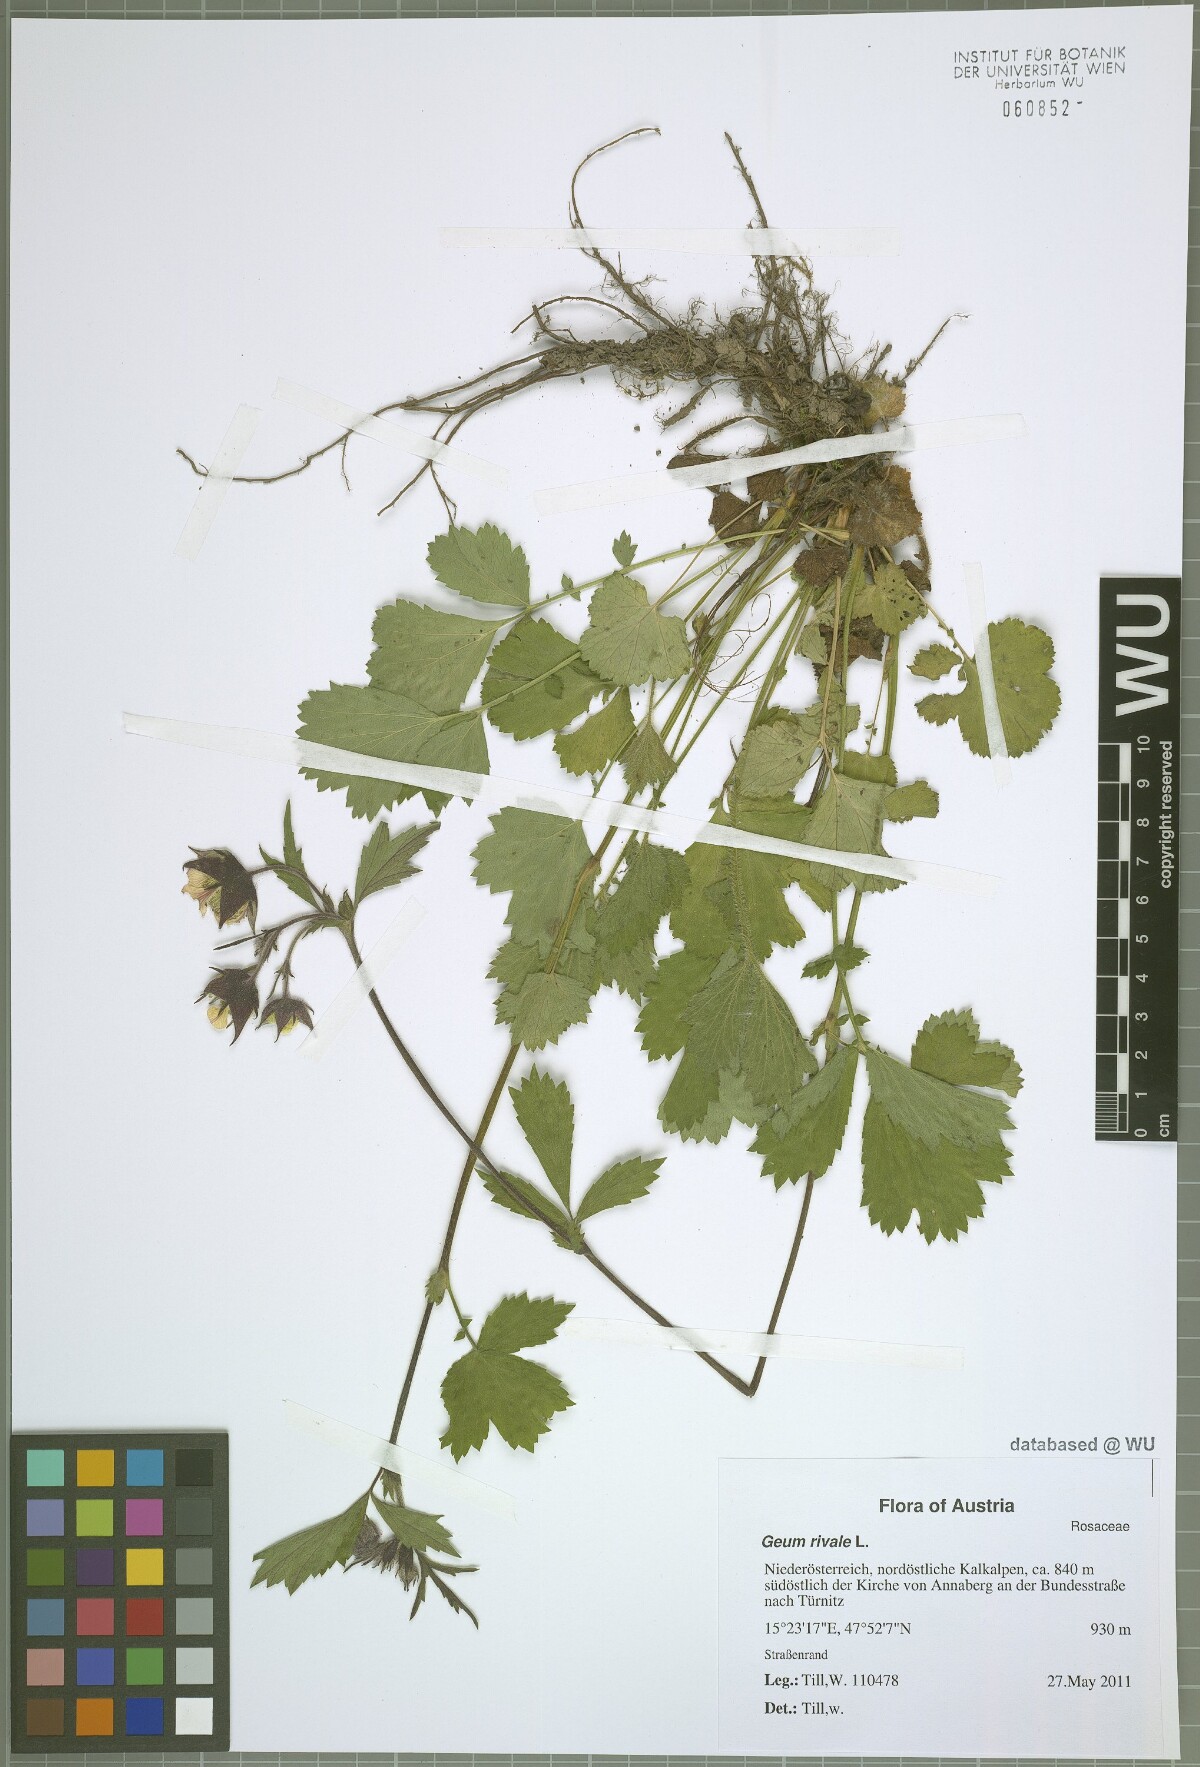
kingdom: Plantae
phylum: Tracheophyta
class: Magnoliopsida
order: Rosales
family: Rosaceae
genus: Geum
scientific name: Geum rivale
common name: Water avens
